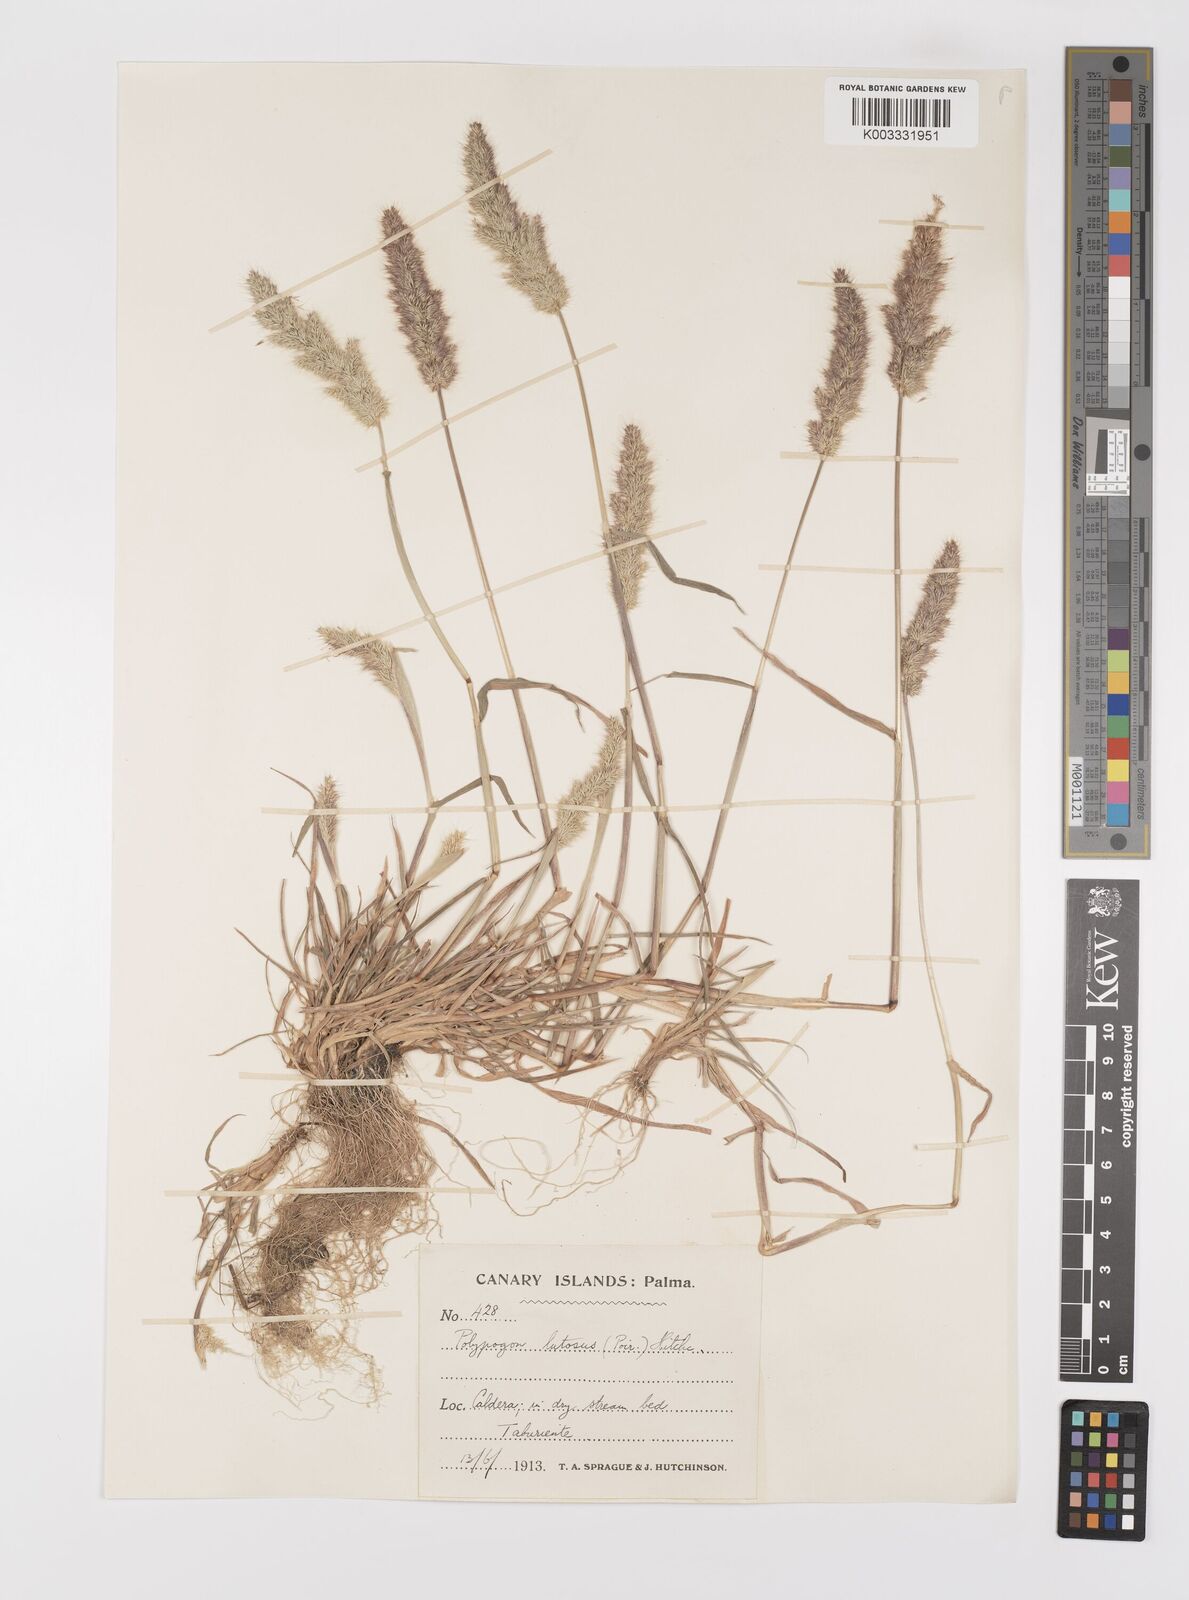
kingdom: Plantae
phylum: Tracheophyta
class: Liliopsida
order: Poales
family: Poaceae
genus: Polypogon
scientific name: Polypogon fugax
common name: Asia minor bluegrass
